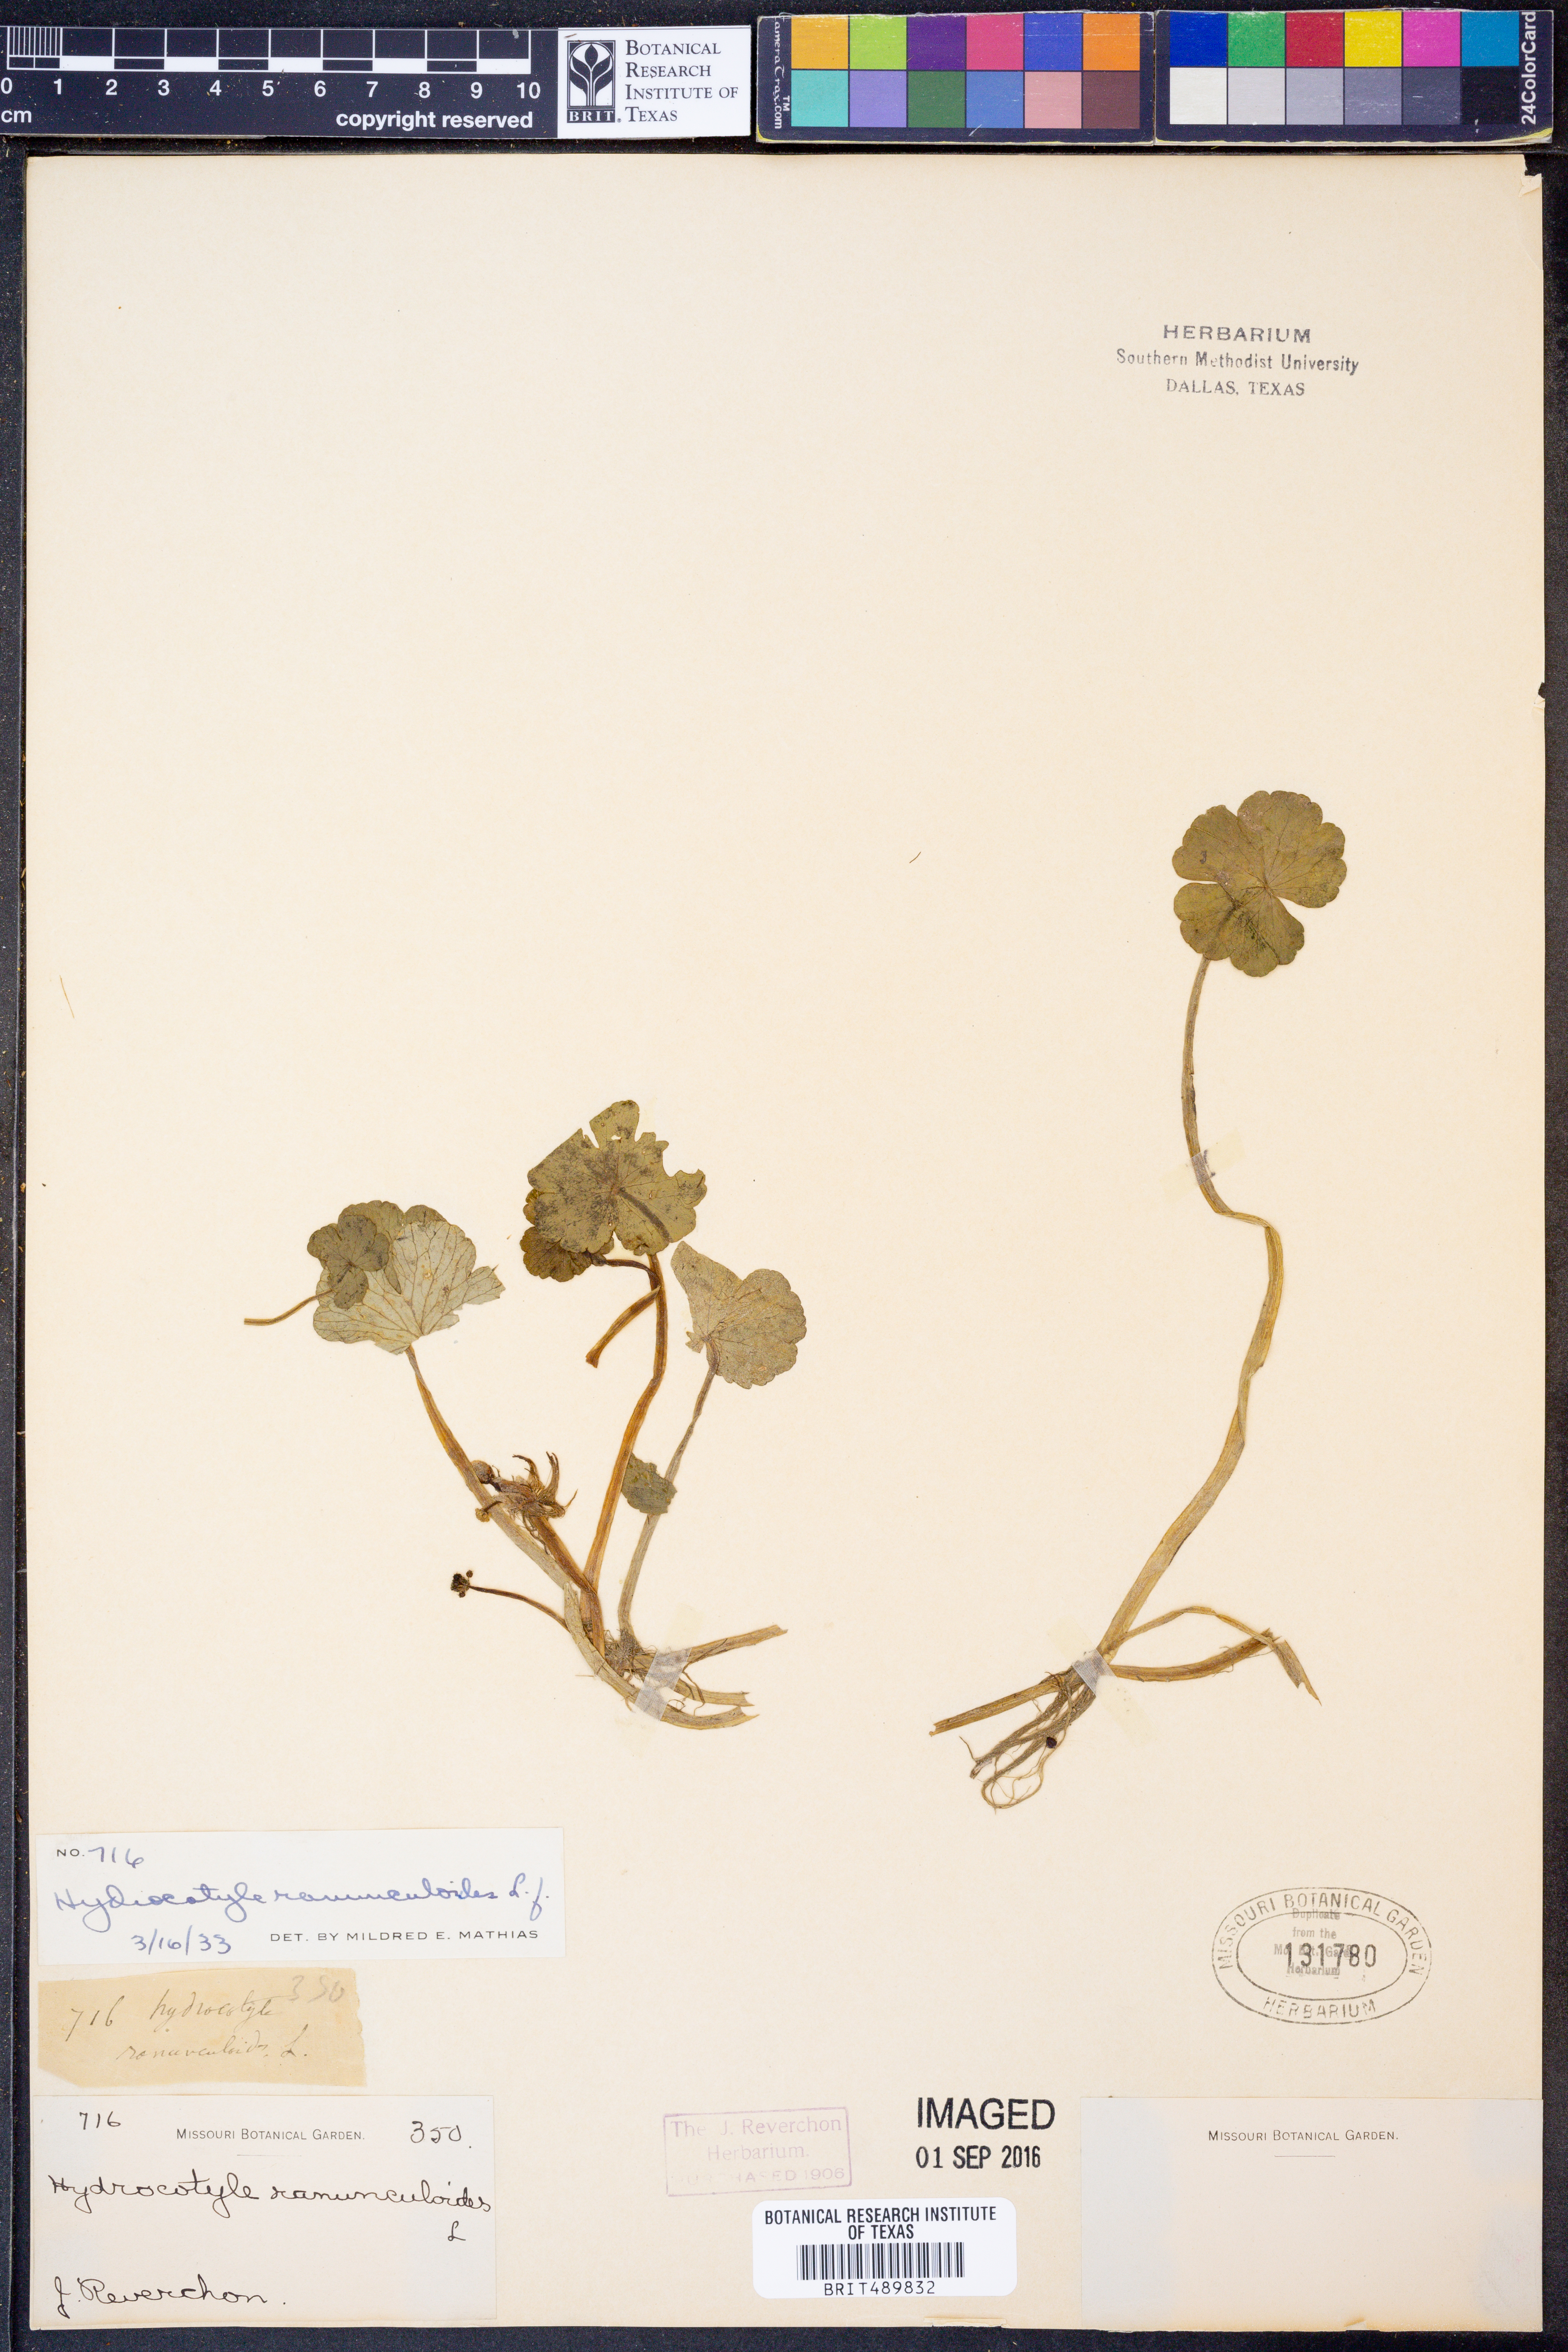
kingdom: Plantae
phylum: Tracheophyta
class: Magnoliopsida
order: Apiales
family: Araliaceae
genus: Hydrocotyle
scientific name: Hydrocotyle ranunculoides
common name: Floating pennywort
